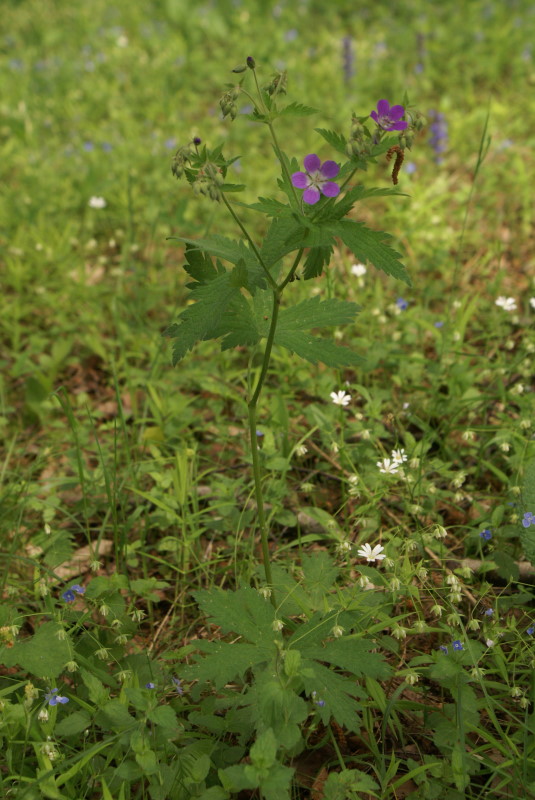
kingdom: Plantae
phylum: Tracheophyta
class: Magnoliopsida
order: Geraniales
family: Geraniaceae
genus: Geranium
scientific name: Geranium sylvaticum
